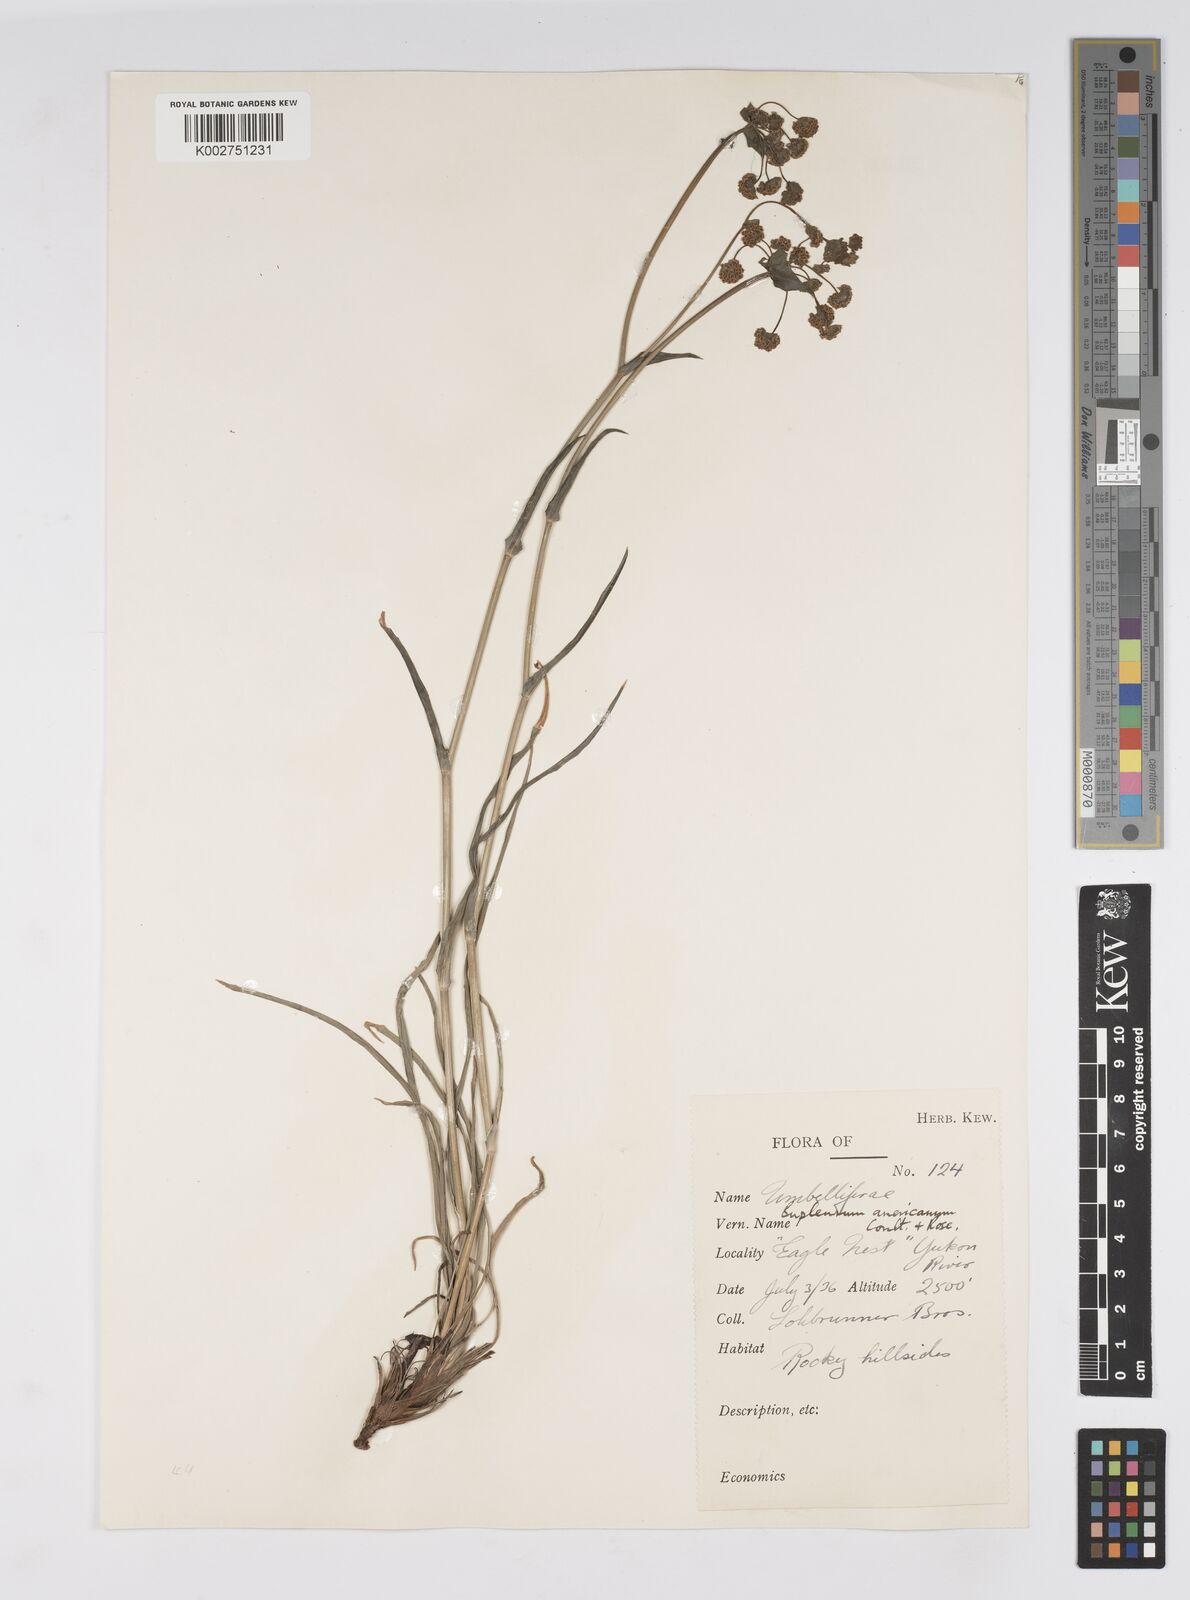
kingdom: Plantae
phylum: Tracheophyta
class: Magnoliopsida
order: Apiales
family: Apiaceae
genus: Bupleurum
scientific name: Bupleurum americanum
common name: American thoroughwax
